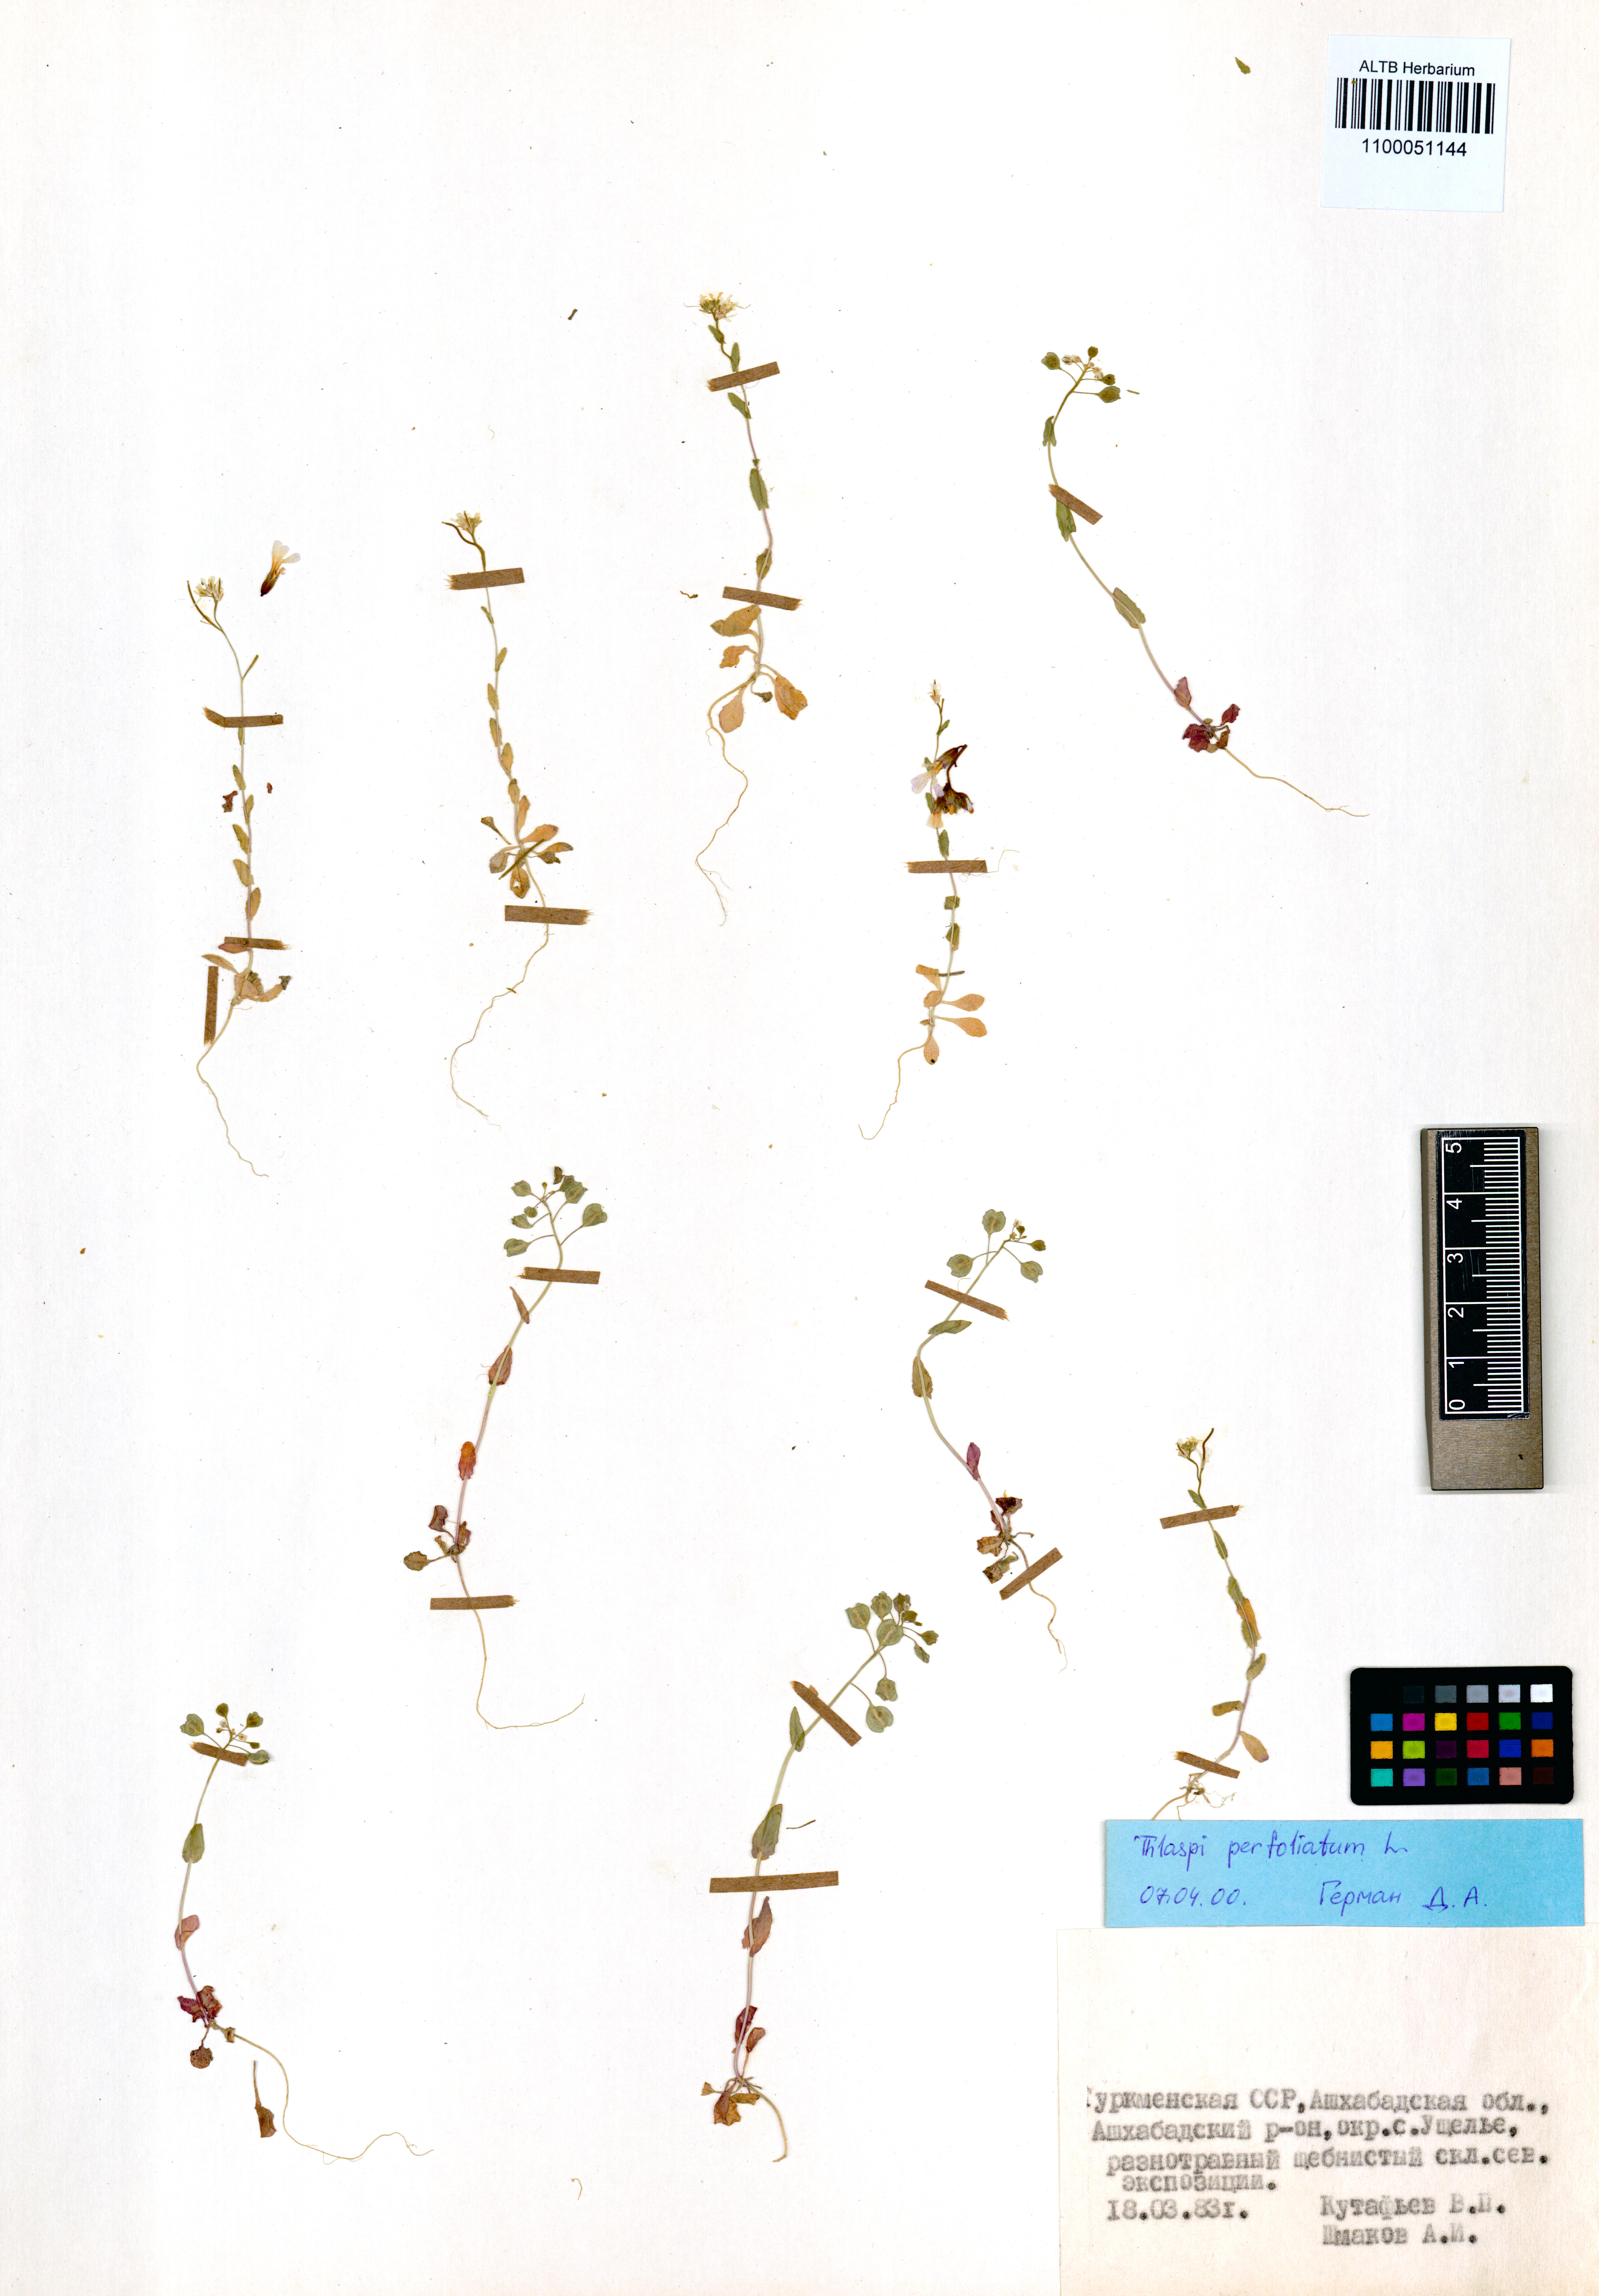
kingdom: Plantae
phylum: Tracheophyta
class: Magnoliopsida
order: Brassicales
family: Brassicaceae
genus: Noccaea
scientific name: Noccaea perfoliata
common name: Perfoliate pennycress
